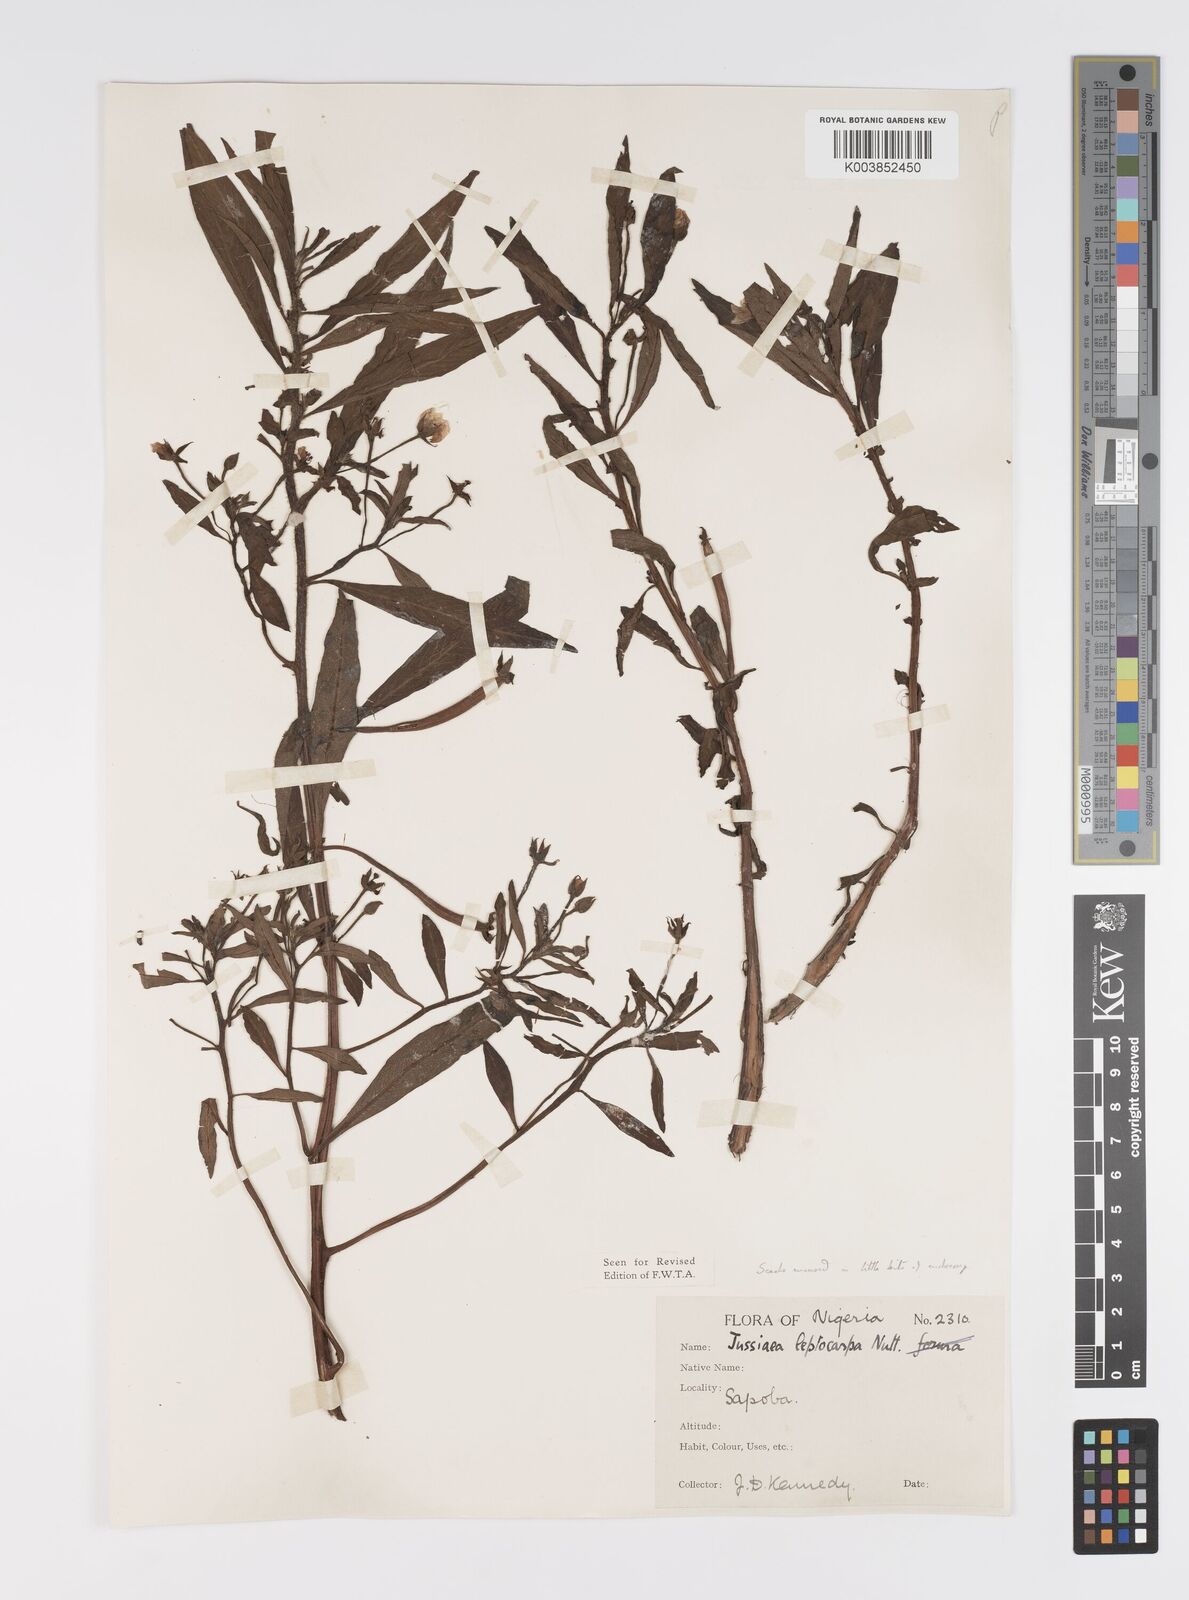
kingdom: Plantae
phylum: Tracheophyta
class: Magnoliopsida
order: Myrtales
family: Onagraceae
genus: Ludwigia
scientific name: Ludwigia leptocarpa
